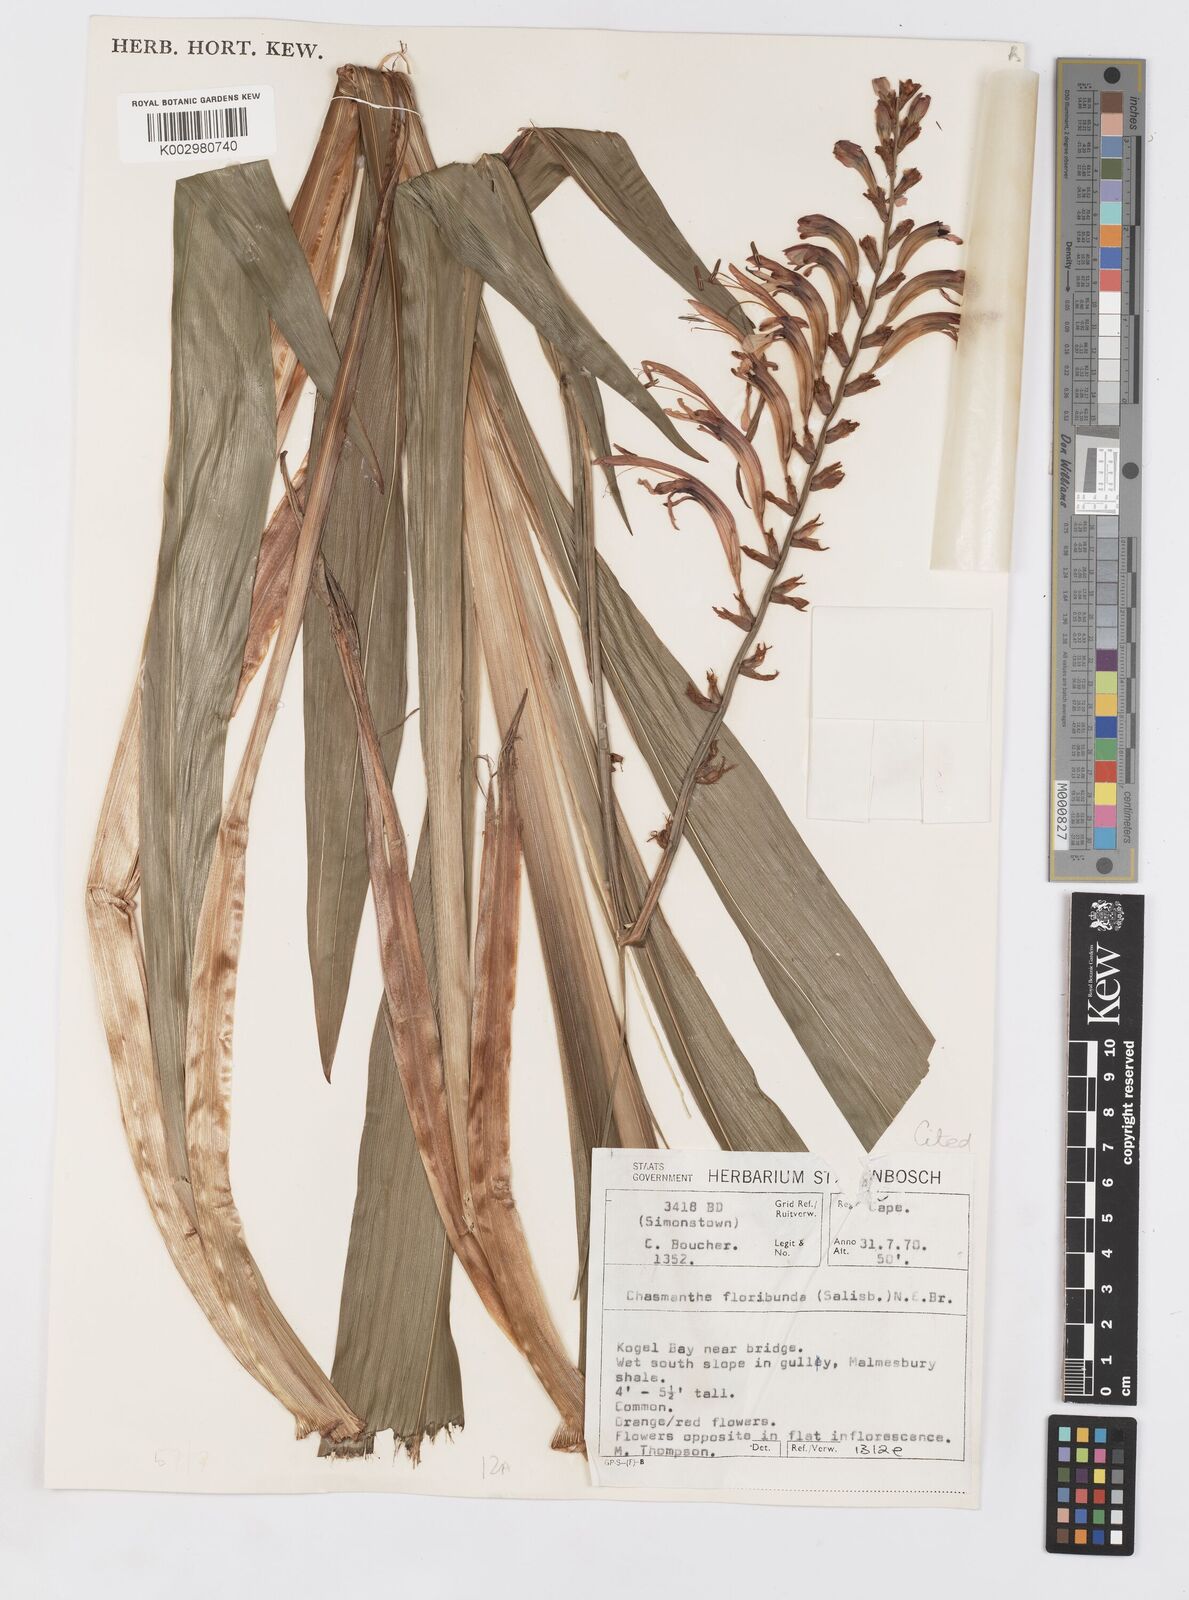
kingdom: Plantae
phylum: Tracheophyta
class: Liliopsida
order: Asparagales
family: Iridaceae
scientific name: Iridaceae
